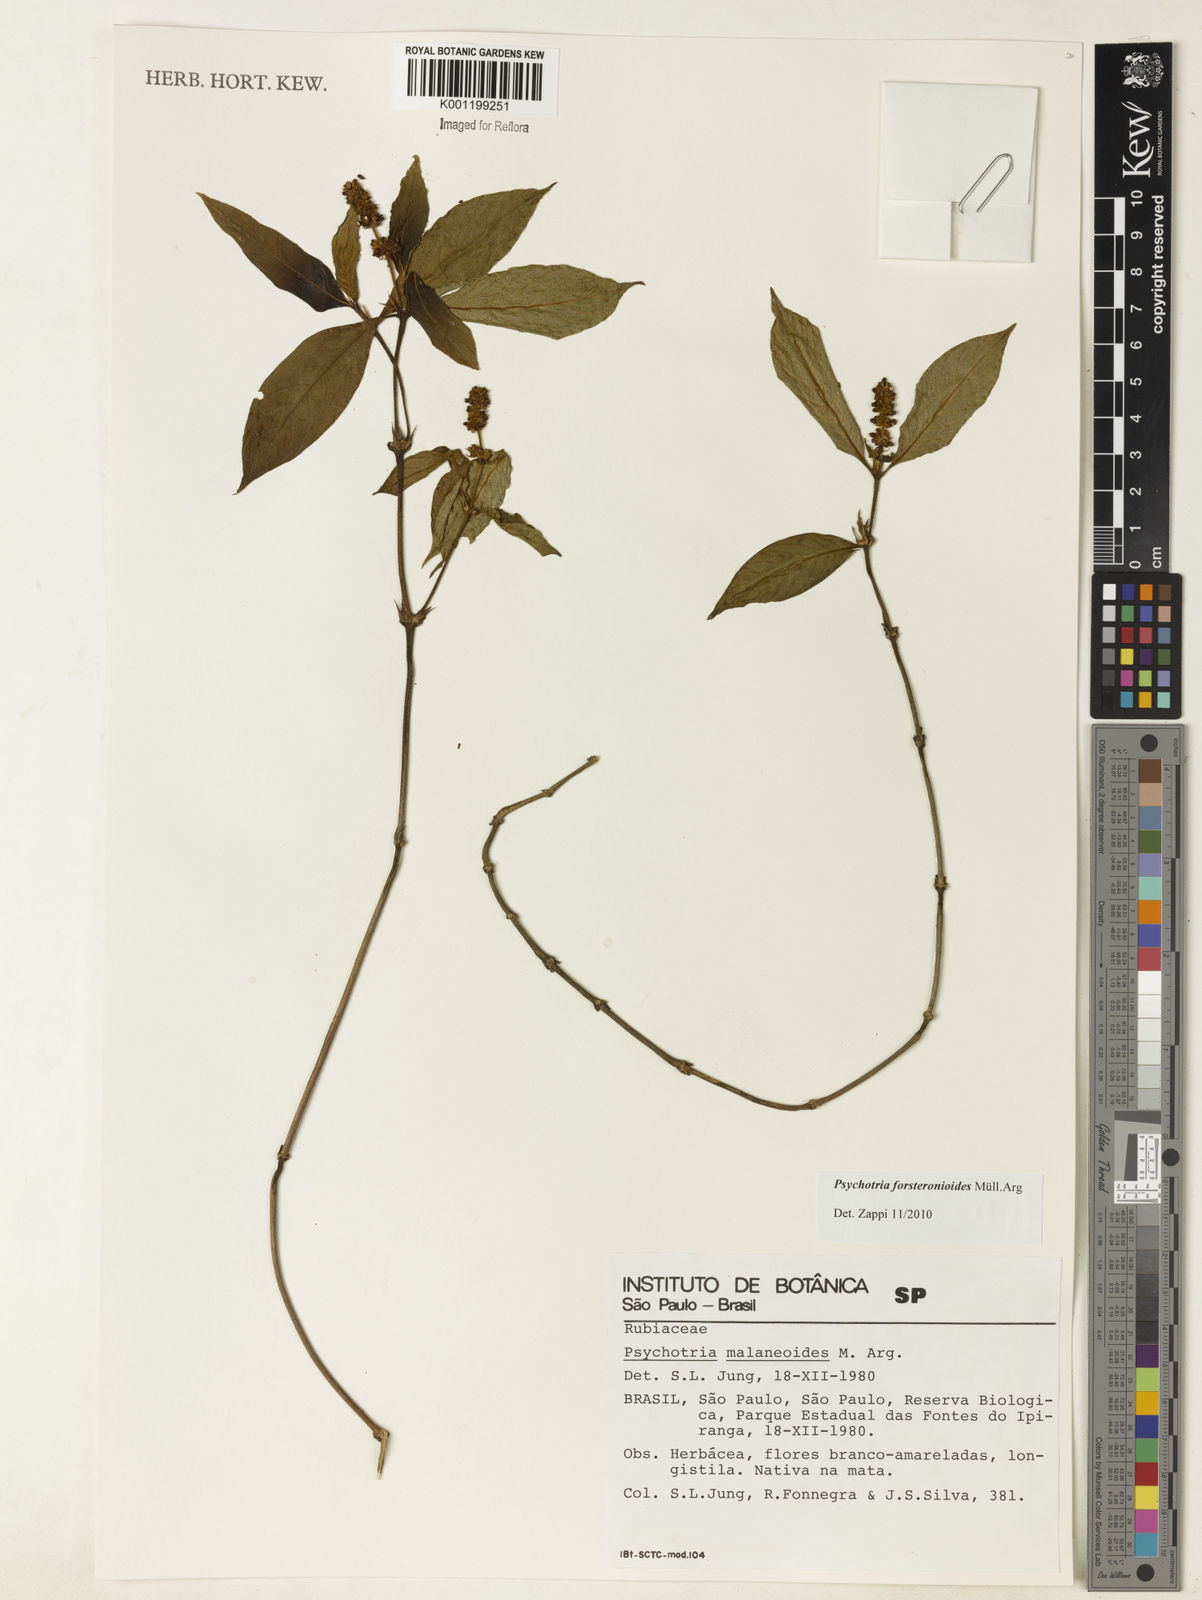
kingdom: Plantae
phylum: Tracheophyta
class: Magnoliopsida
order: Gentianales
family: Rubiaceae
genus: Psychotria
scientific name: Psychotria
